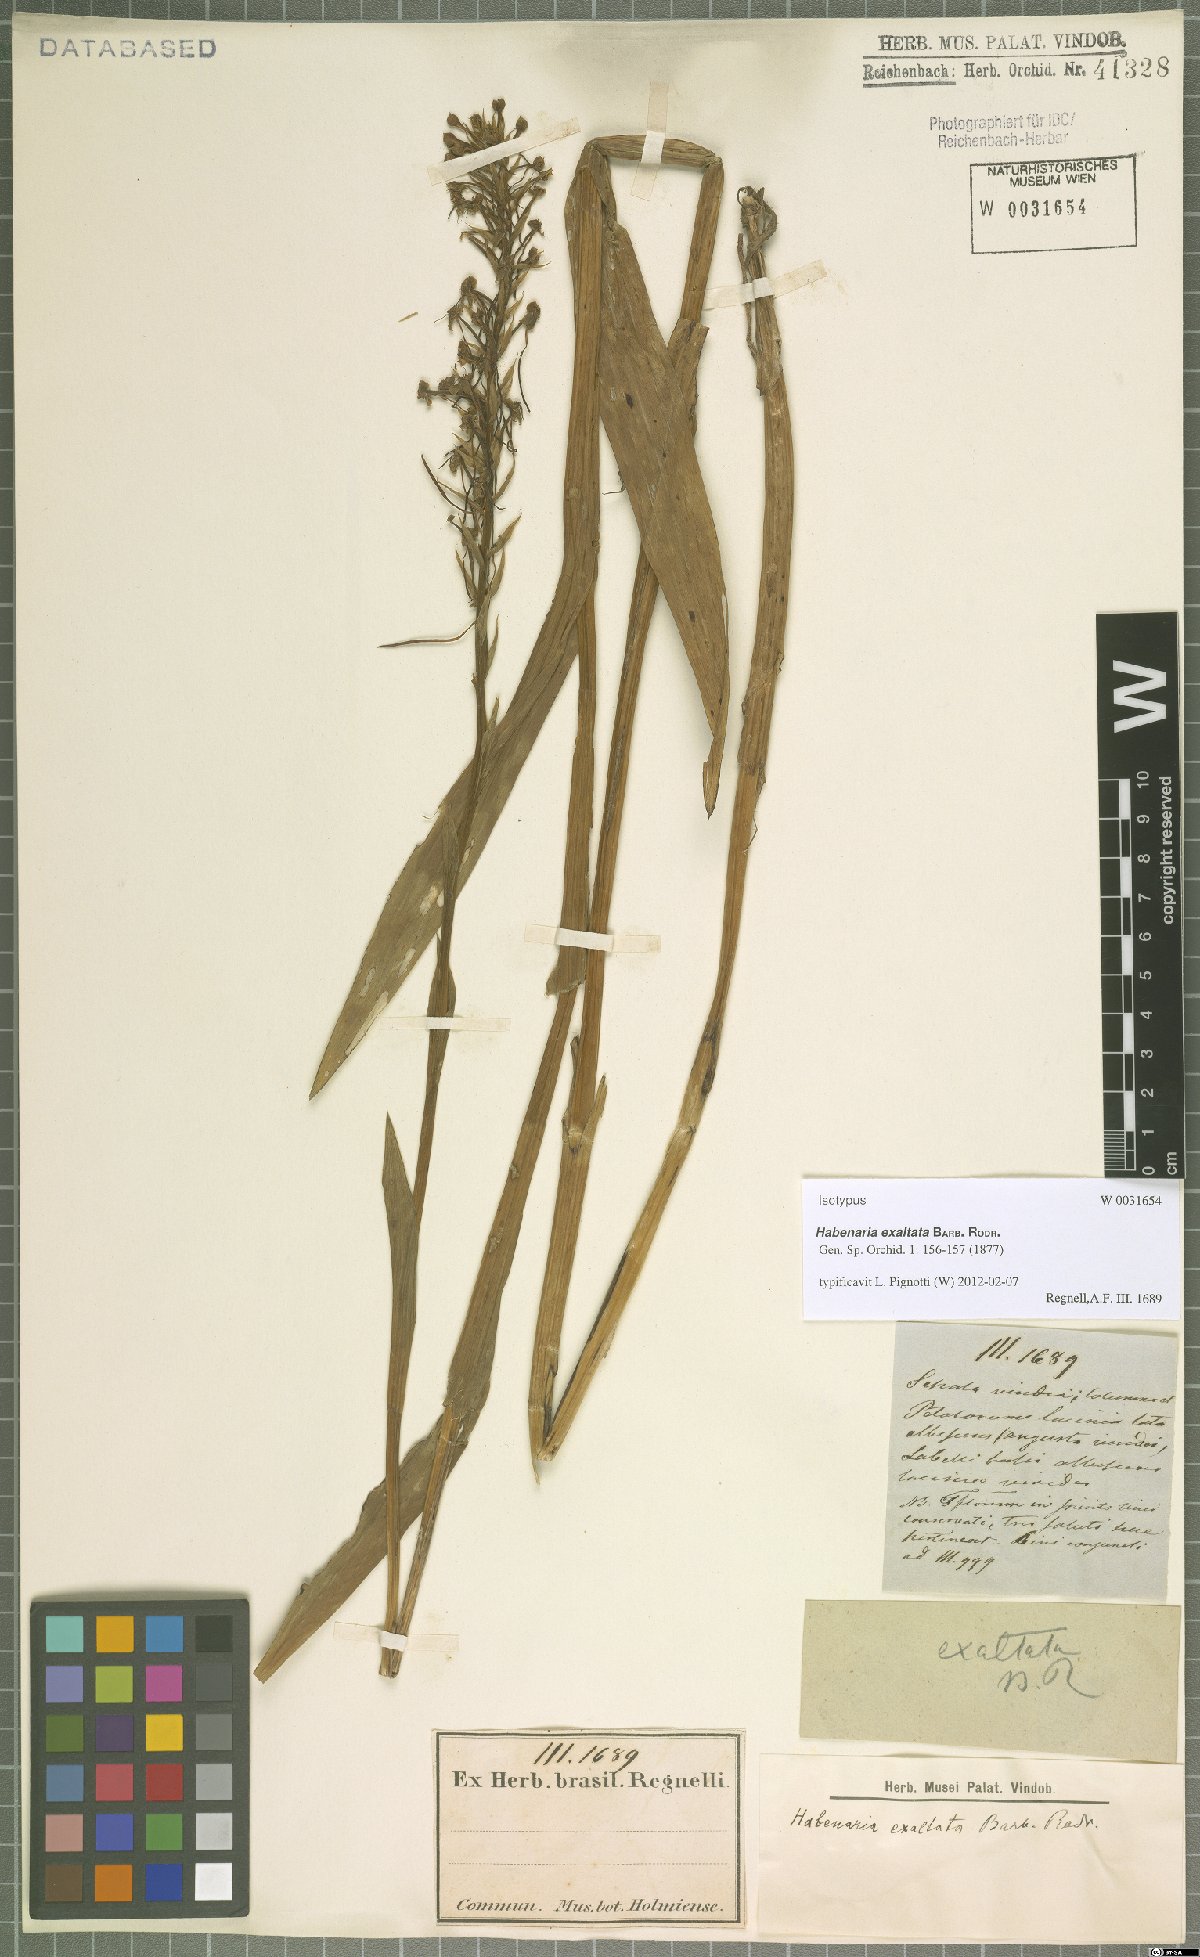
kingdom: Plantae
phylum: Tracheophyta
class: Liliopsida
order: Asparagales
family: Orchidaceae
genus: Habenaria
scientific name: Habenaria exaltata
